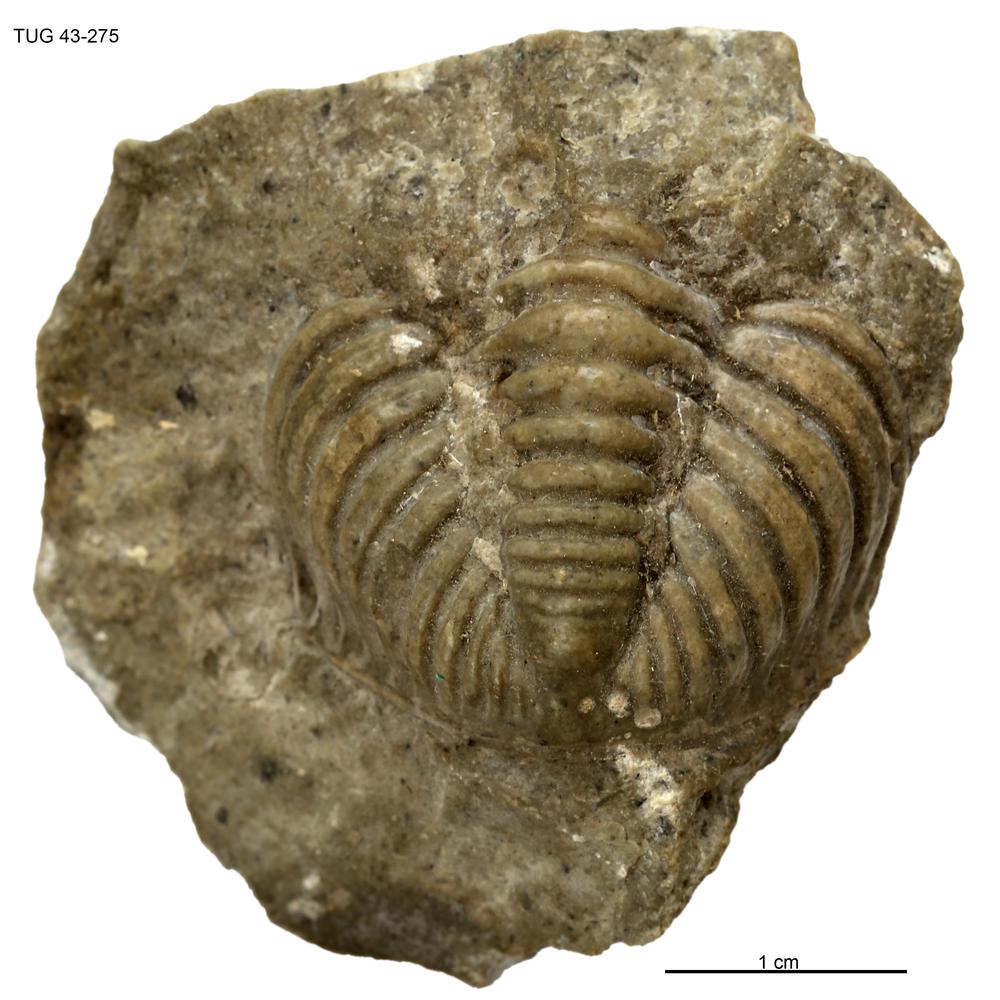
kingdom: Animalia
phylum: Arthropoda
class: Trilobita
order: Phacopida
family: Pterygometopidae
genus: Chasmops
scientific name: Chasmops
